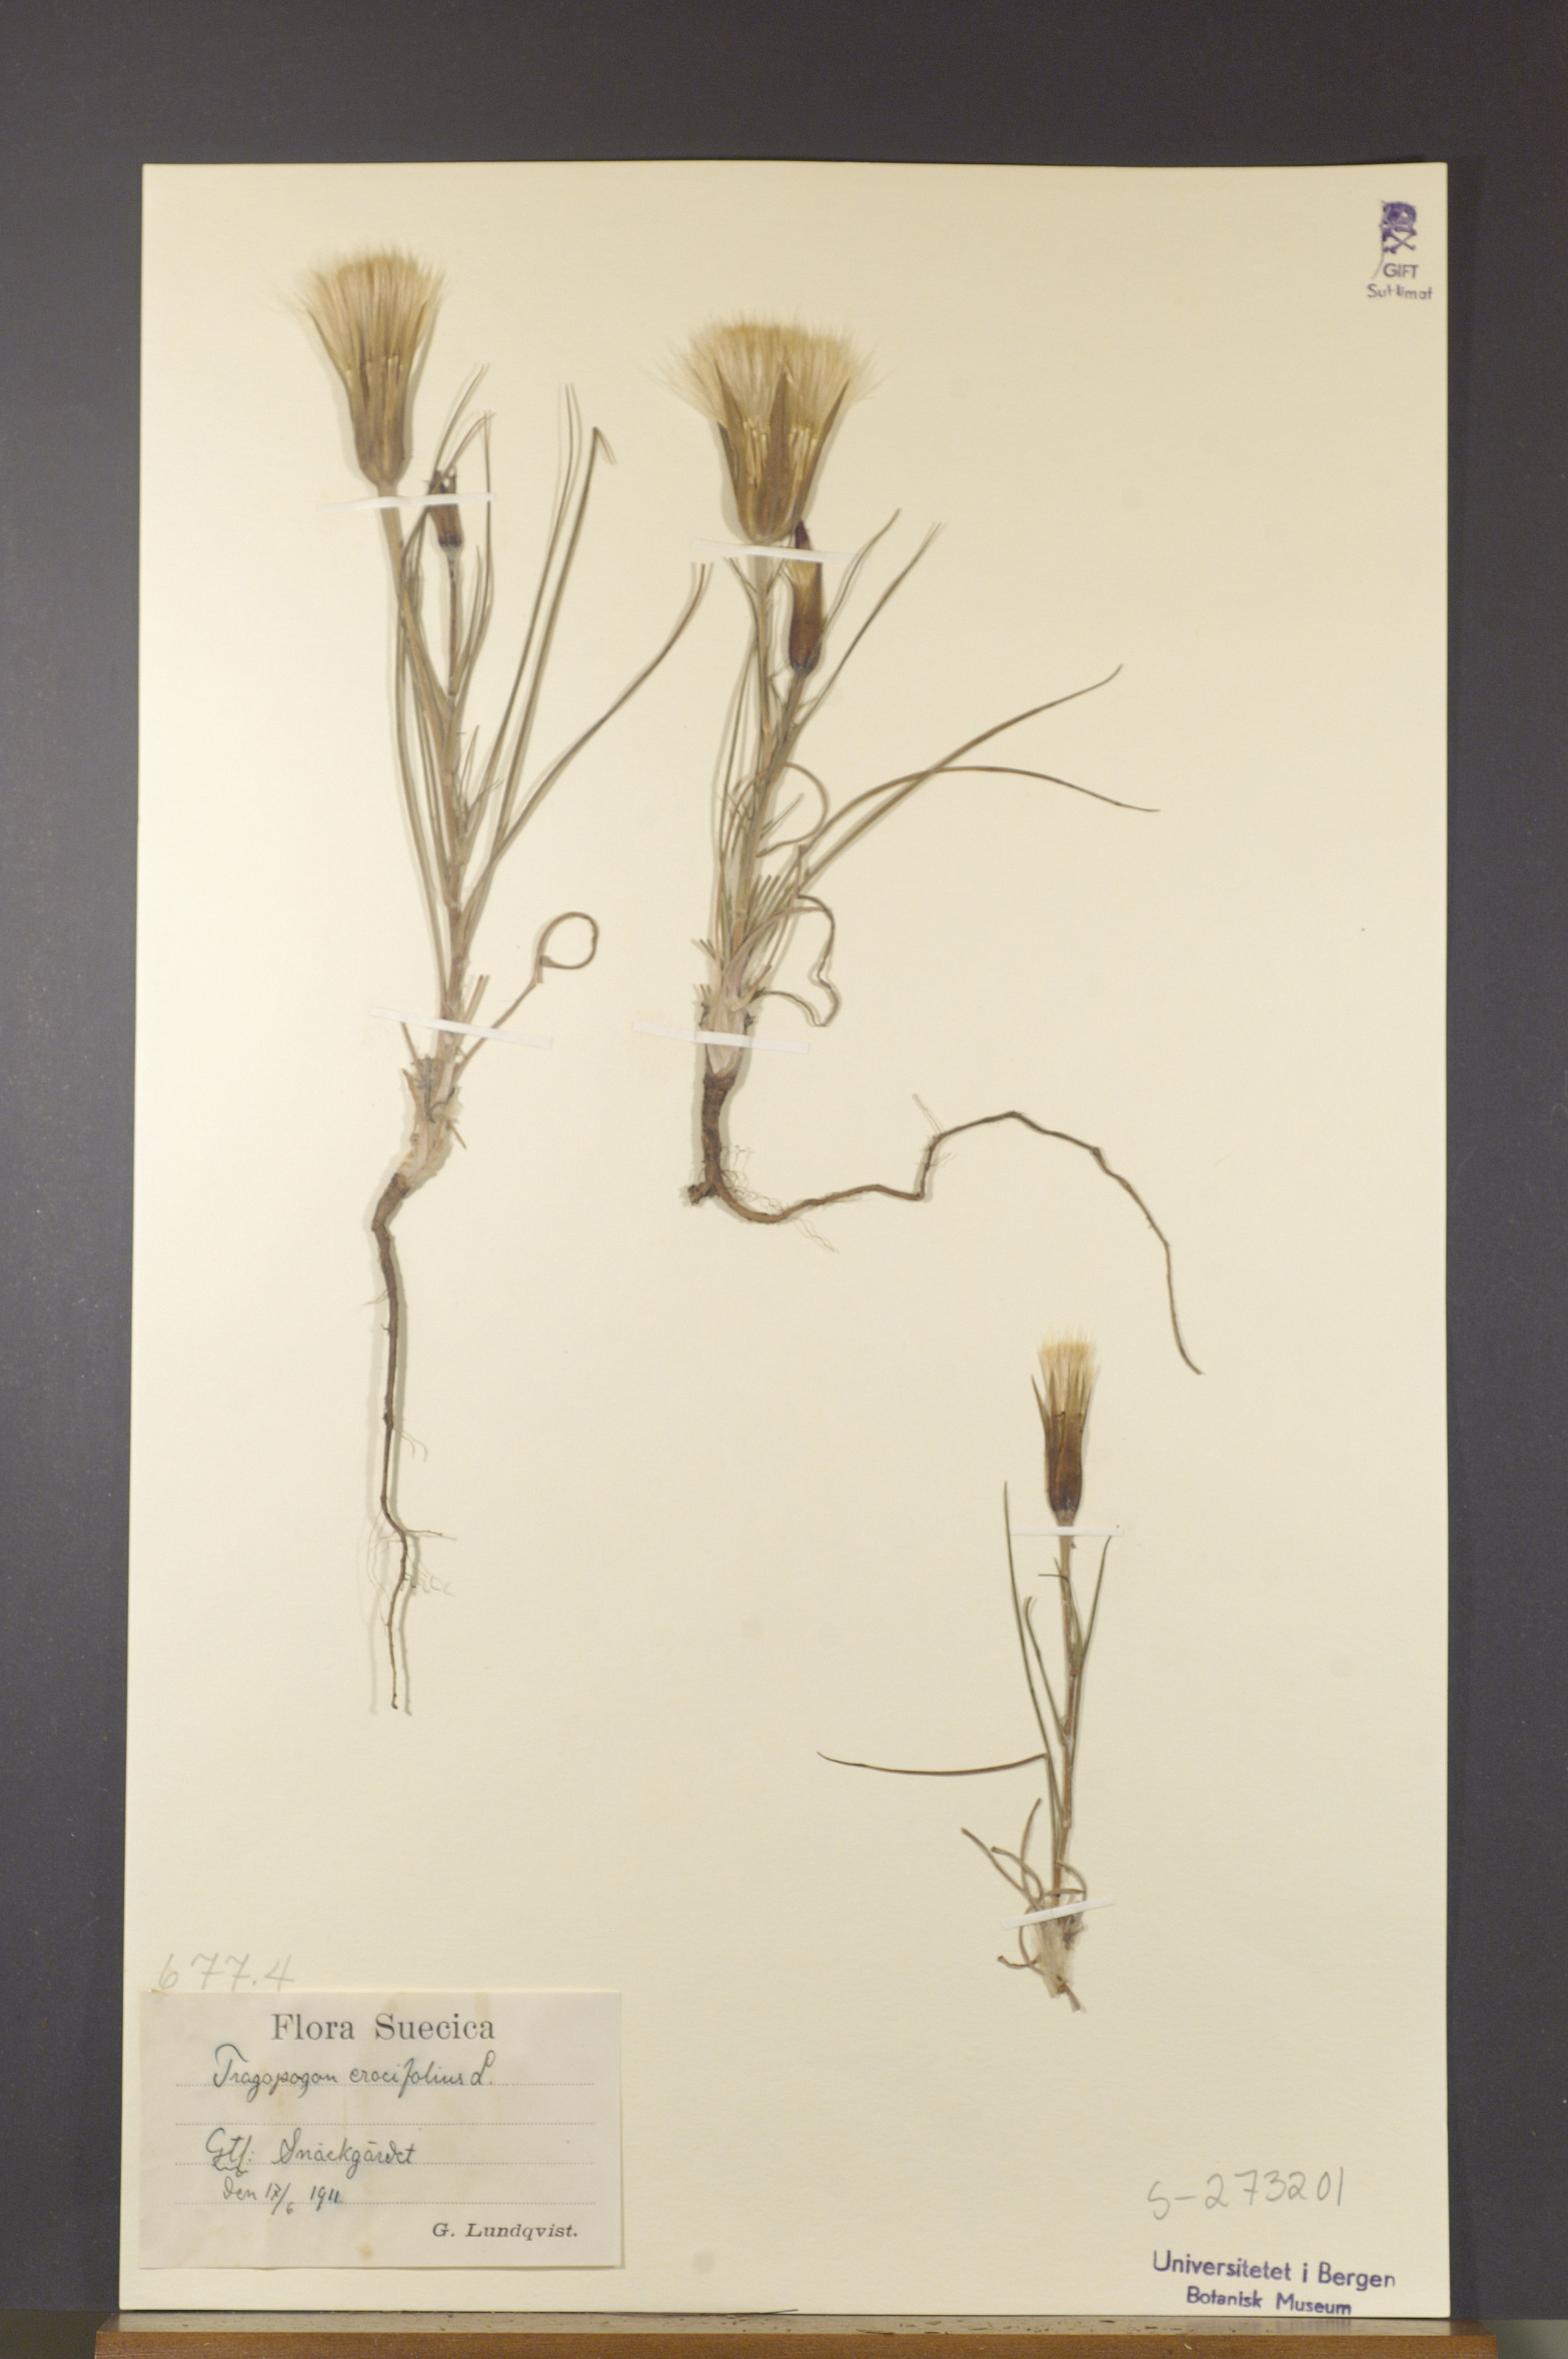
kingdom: Plantae
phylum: Tracheophyta
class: Magnoliopsida
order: Asterales
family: Asteraceae
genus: Tragopogon
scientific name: Tragopogon crocifolius
